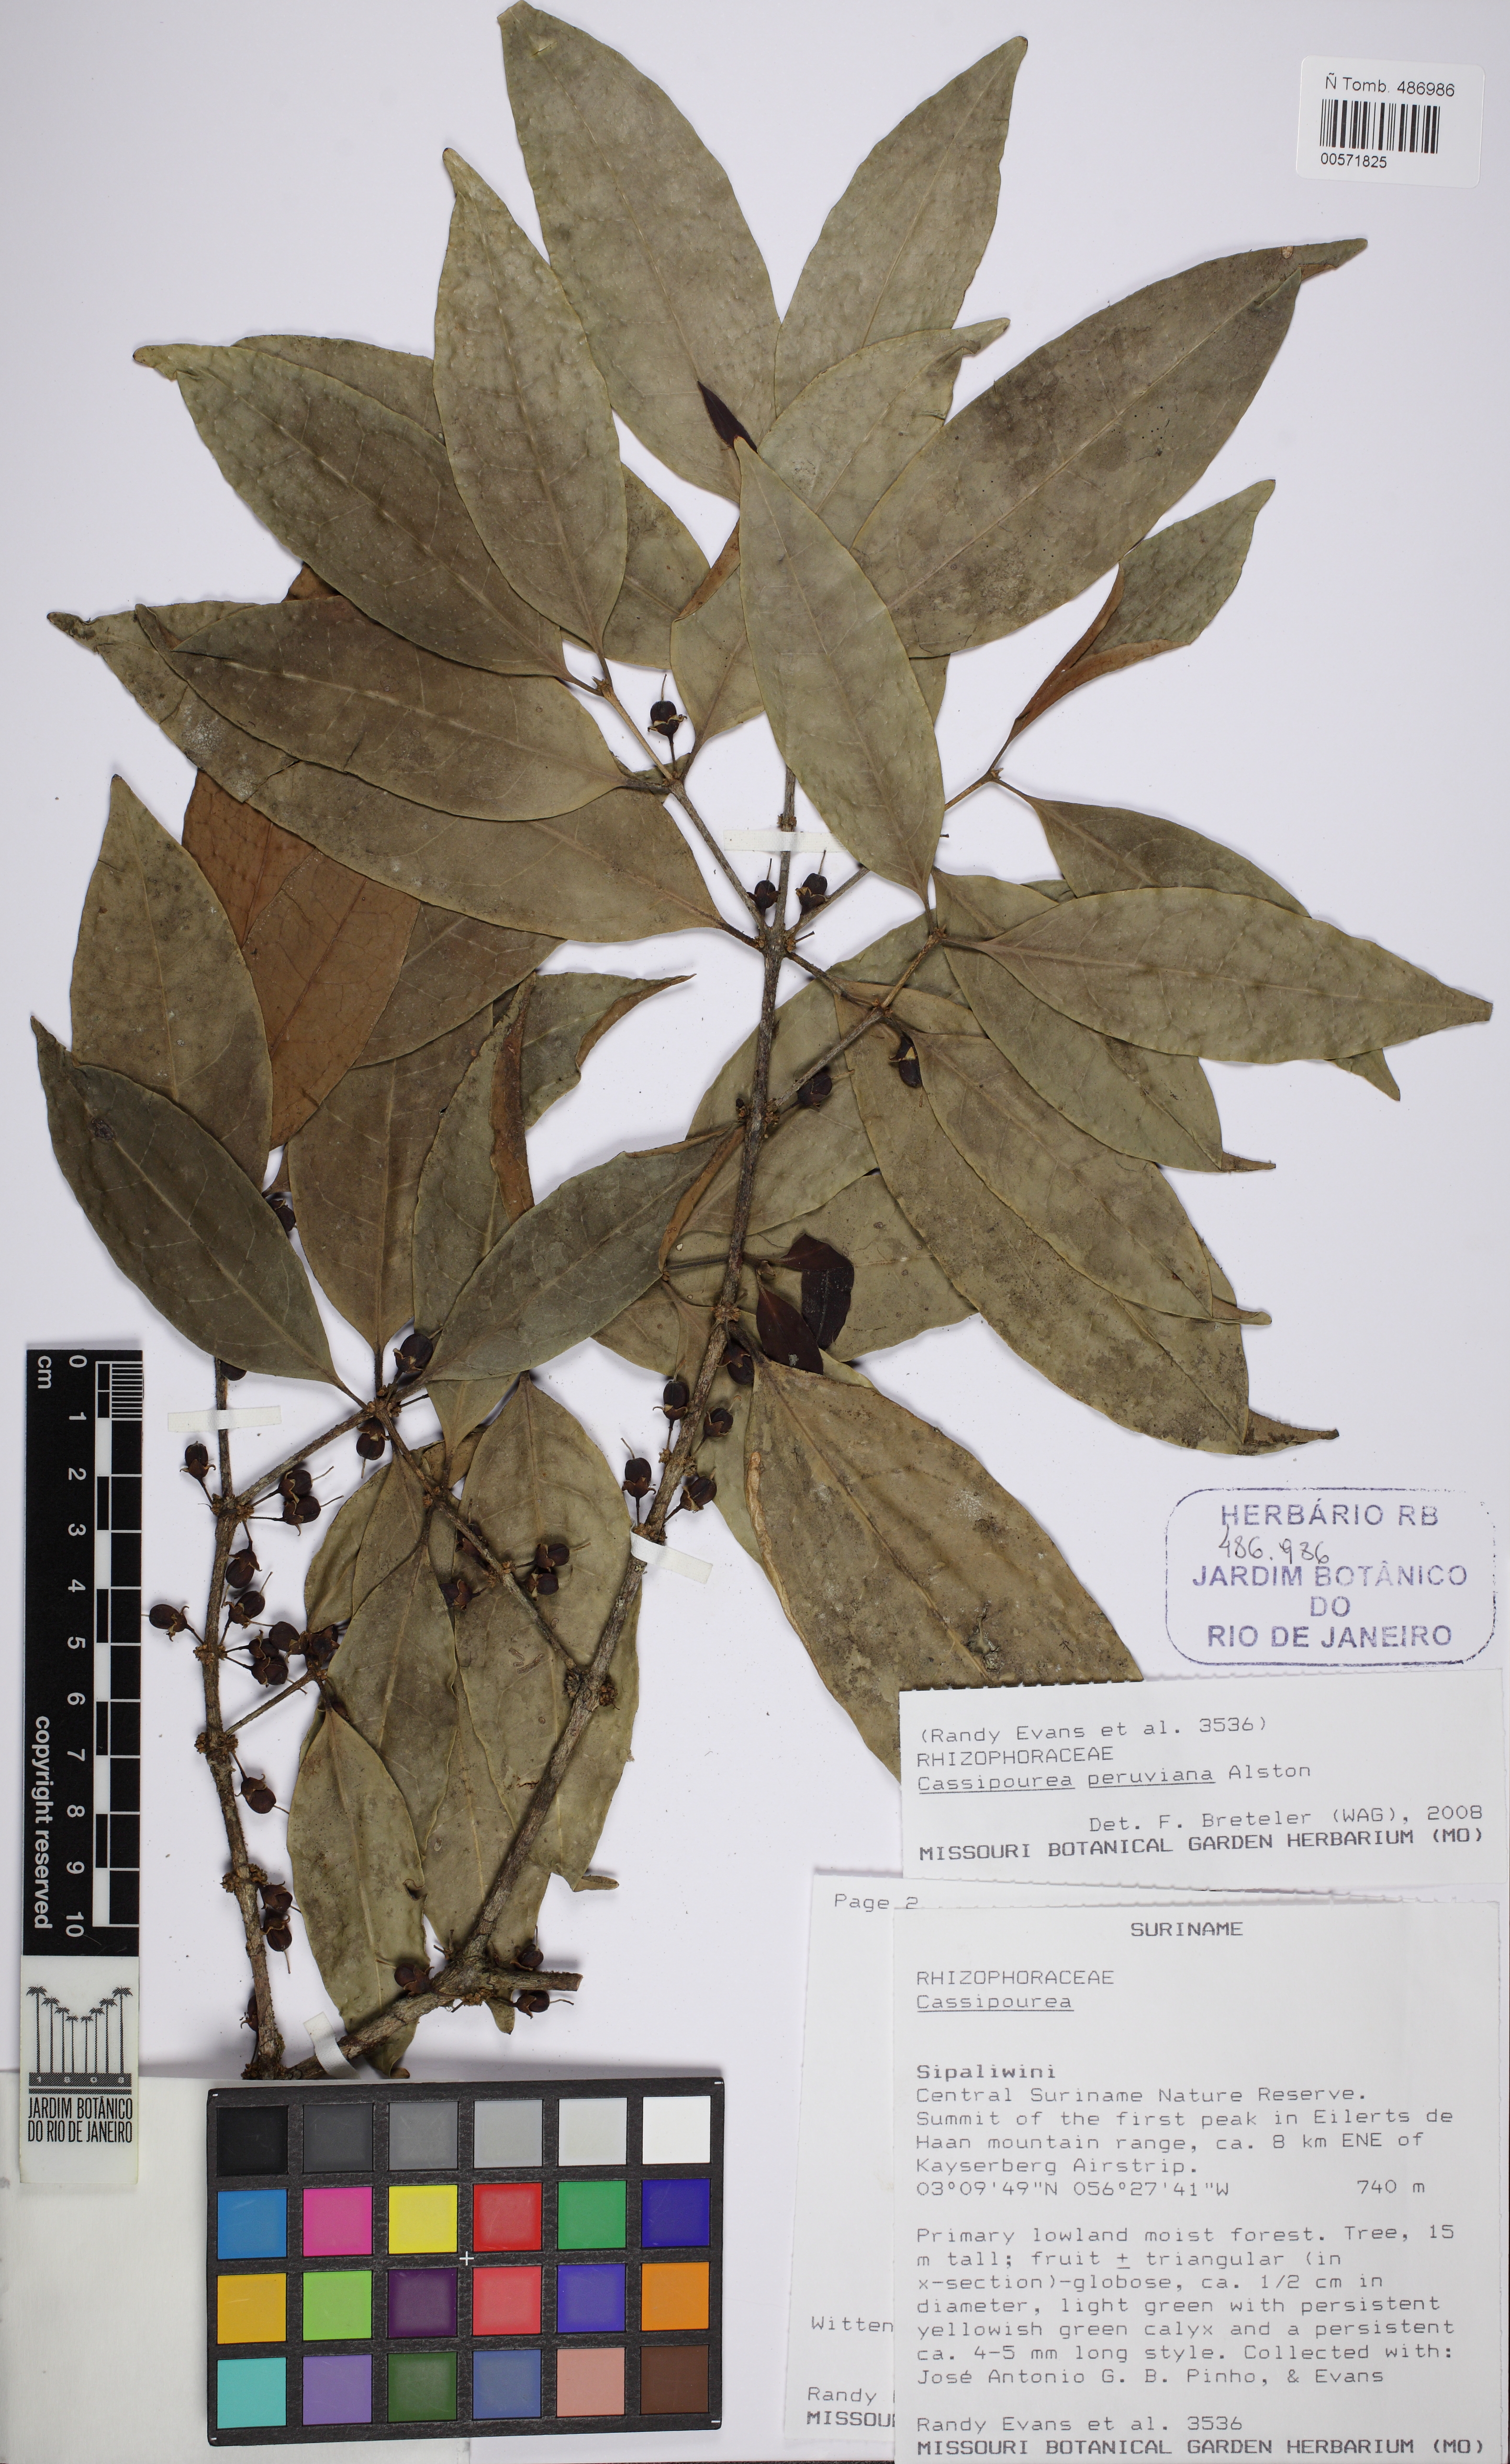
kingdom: Plantae
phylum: Tracheophyta
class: Magnoliopsida
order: Malpighiales
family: Rhizophoraceae
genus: Cassipourea
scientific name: Cassipourea elliptica
